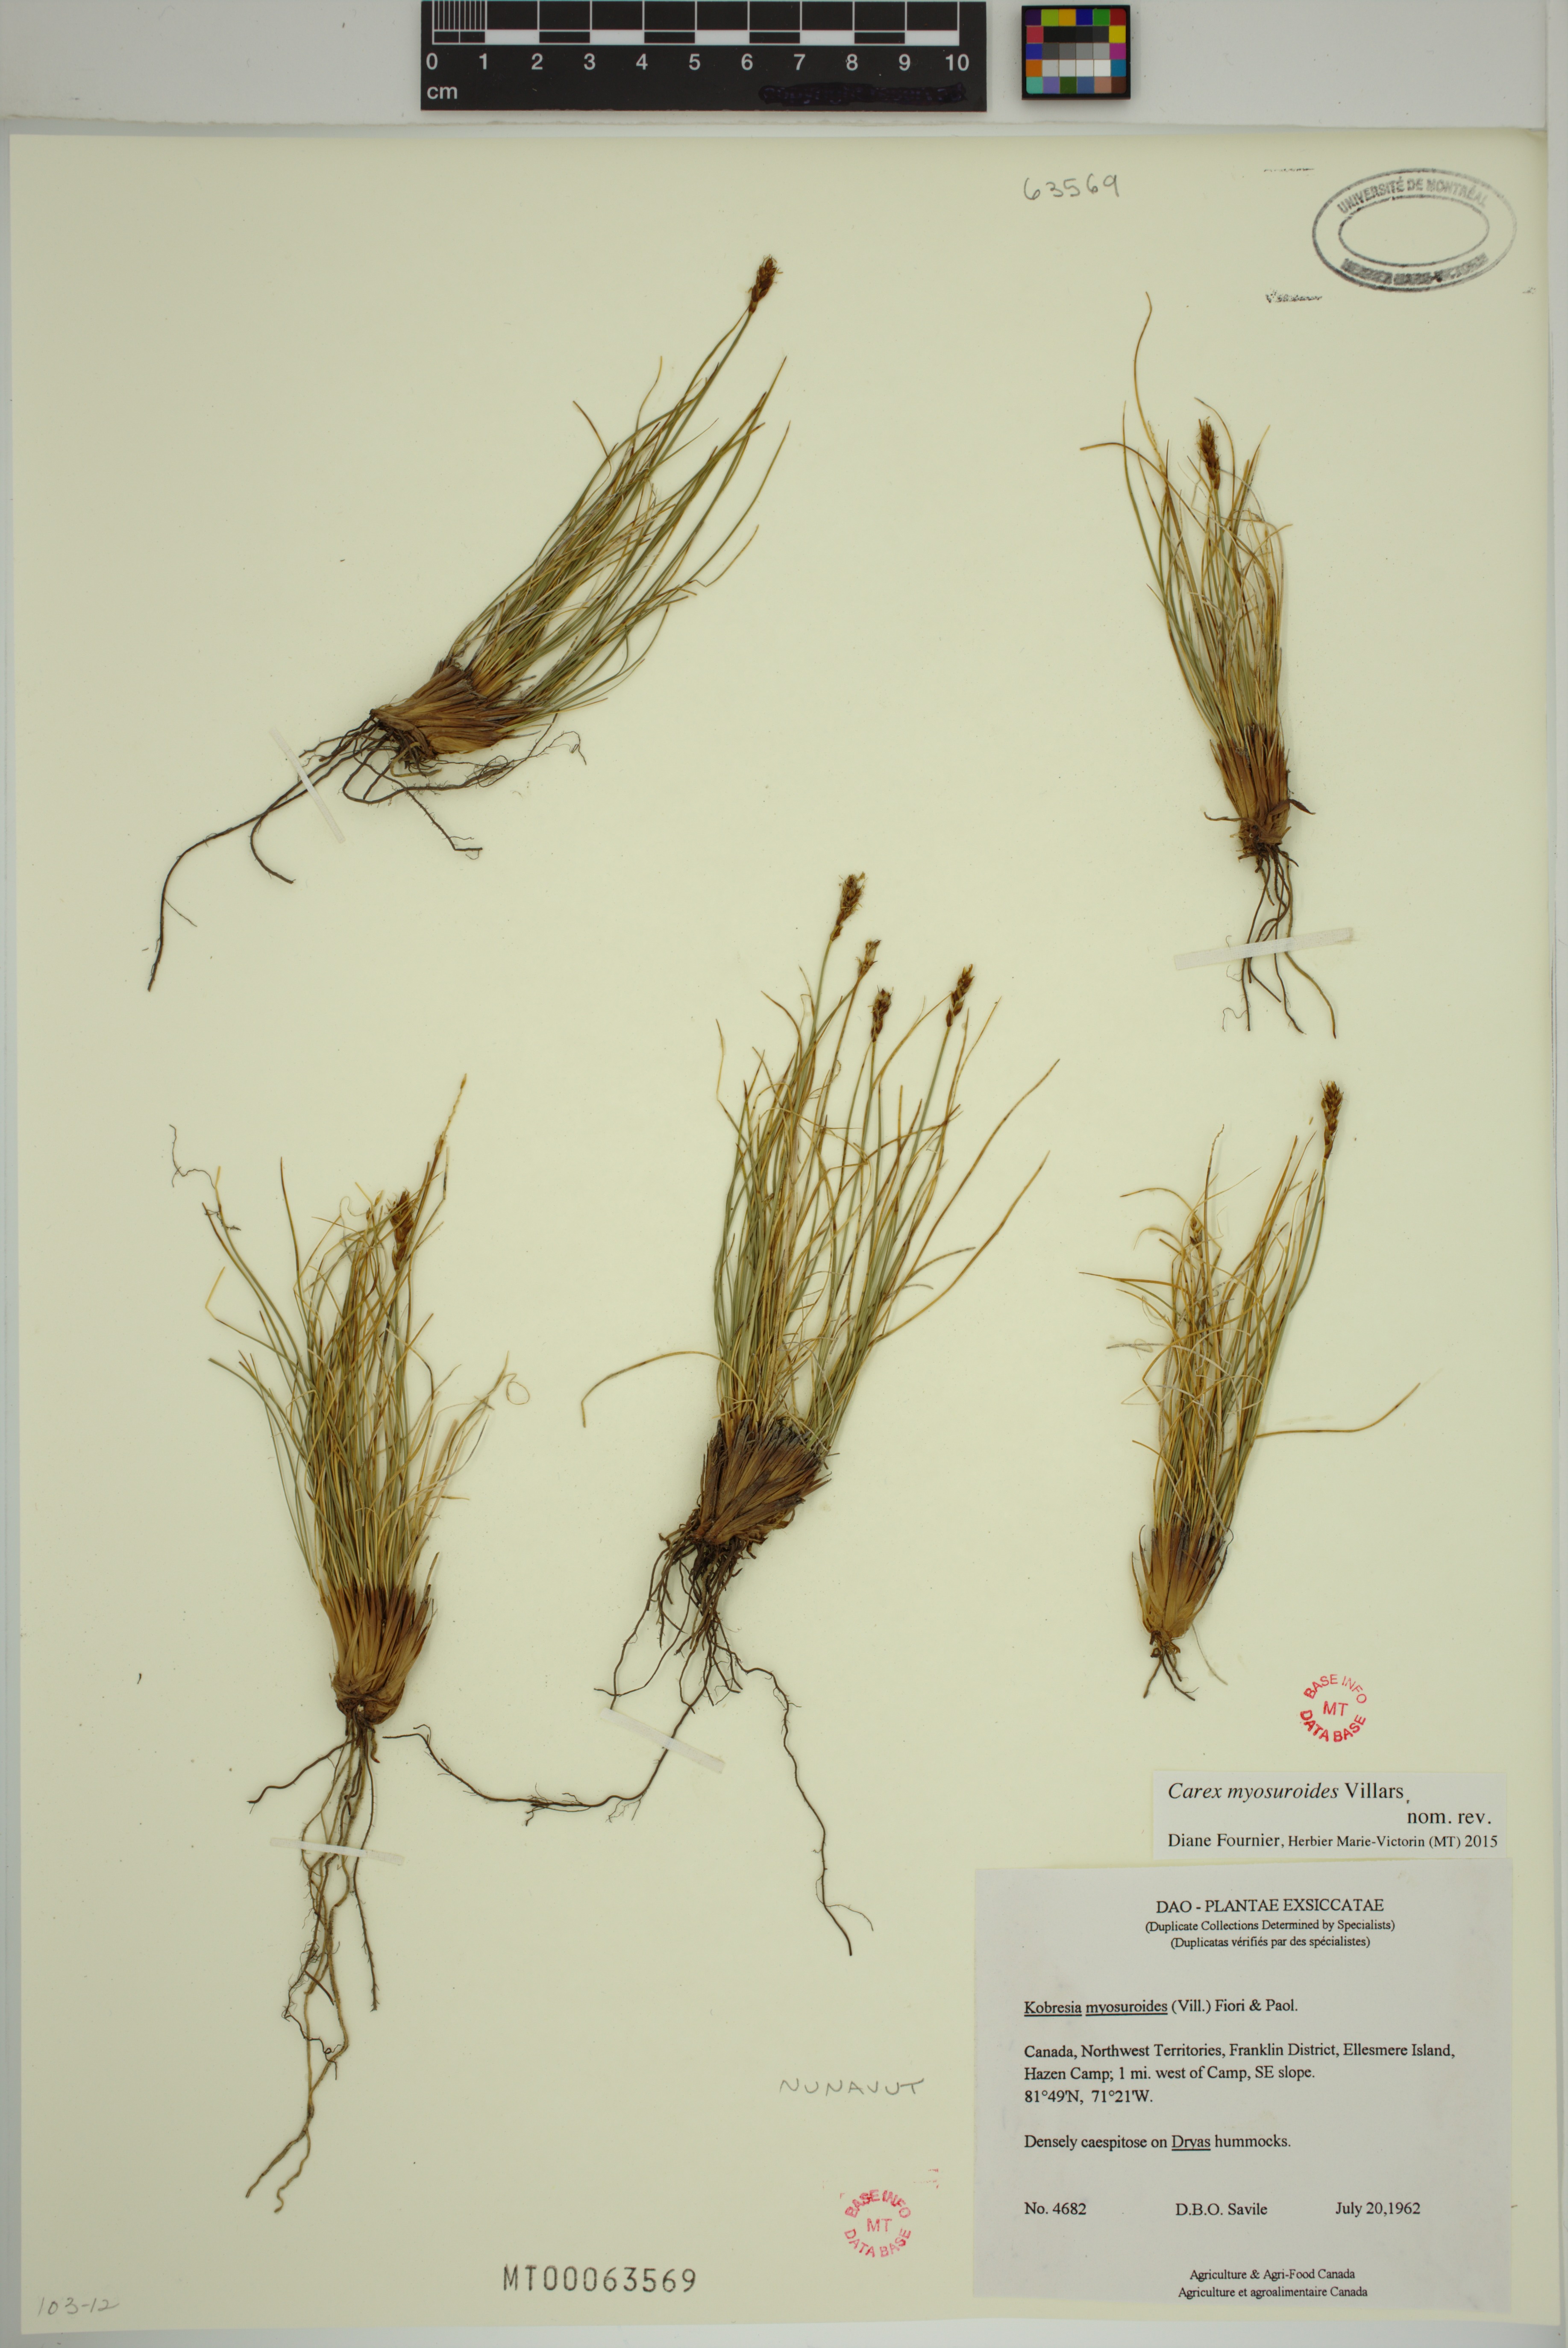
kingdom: Plantae
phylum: Tracheophyta
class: Liliopsida
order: Poales
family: Cyperaceae
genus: Carex
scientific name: Carex myosuroides
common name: Bellard's bog sedge
